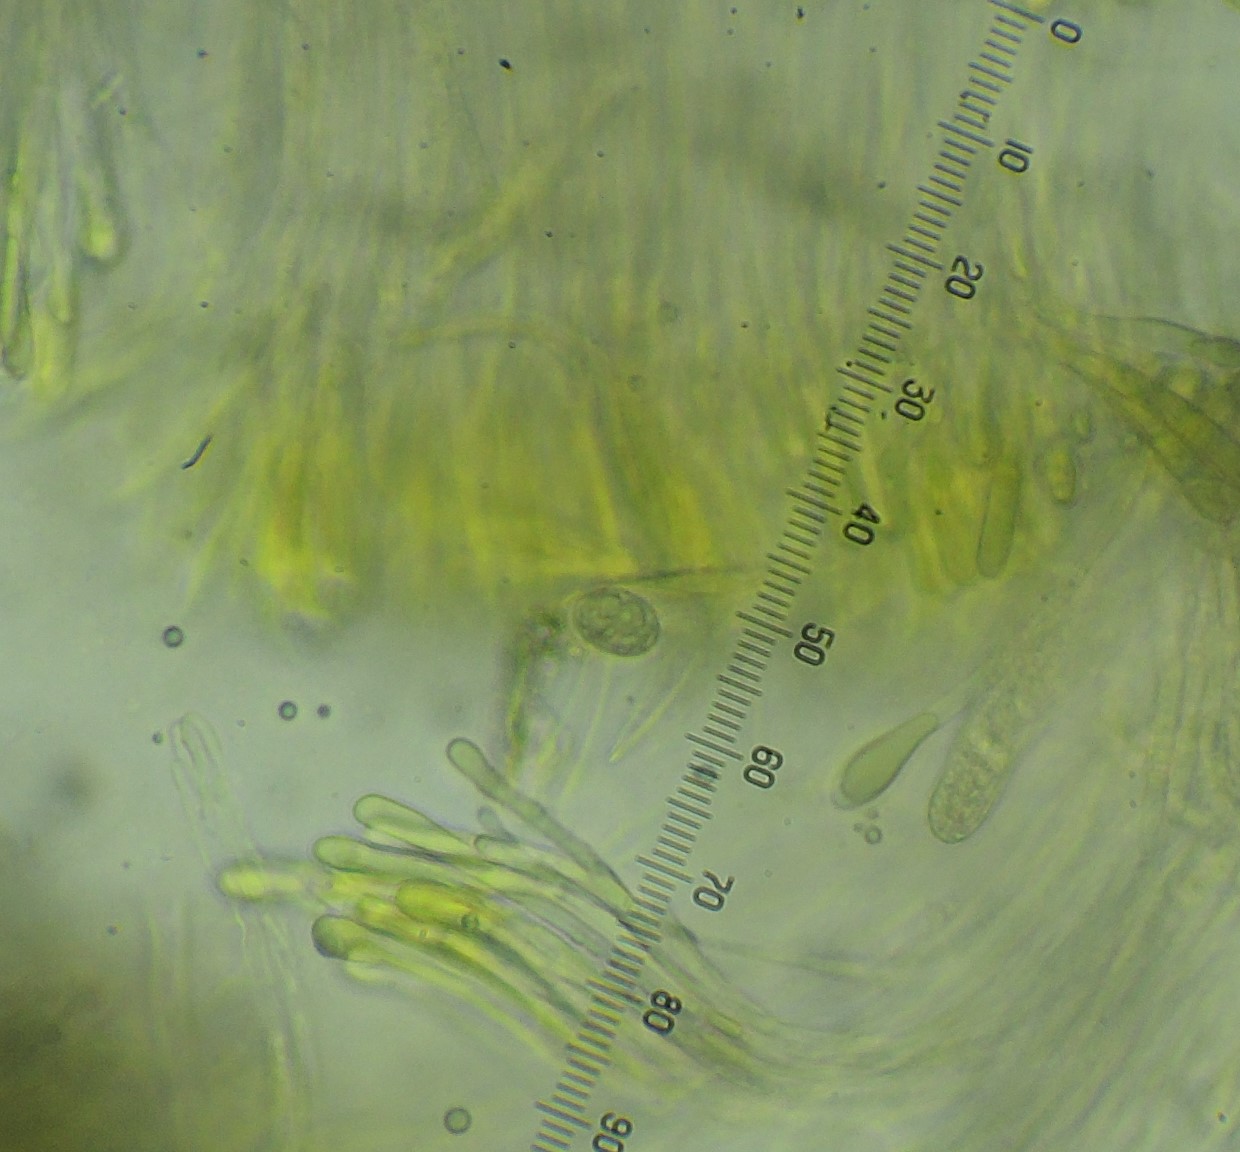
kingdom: Fungi
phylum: Ascomycota
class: Leotiomycetes
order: Helotiales
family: Cenangiaceae
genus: Velutarina
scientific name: Velutarina rufo-olivacea
